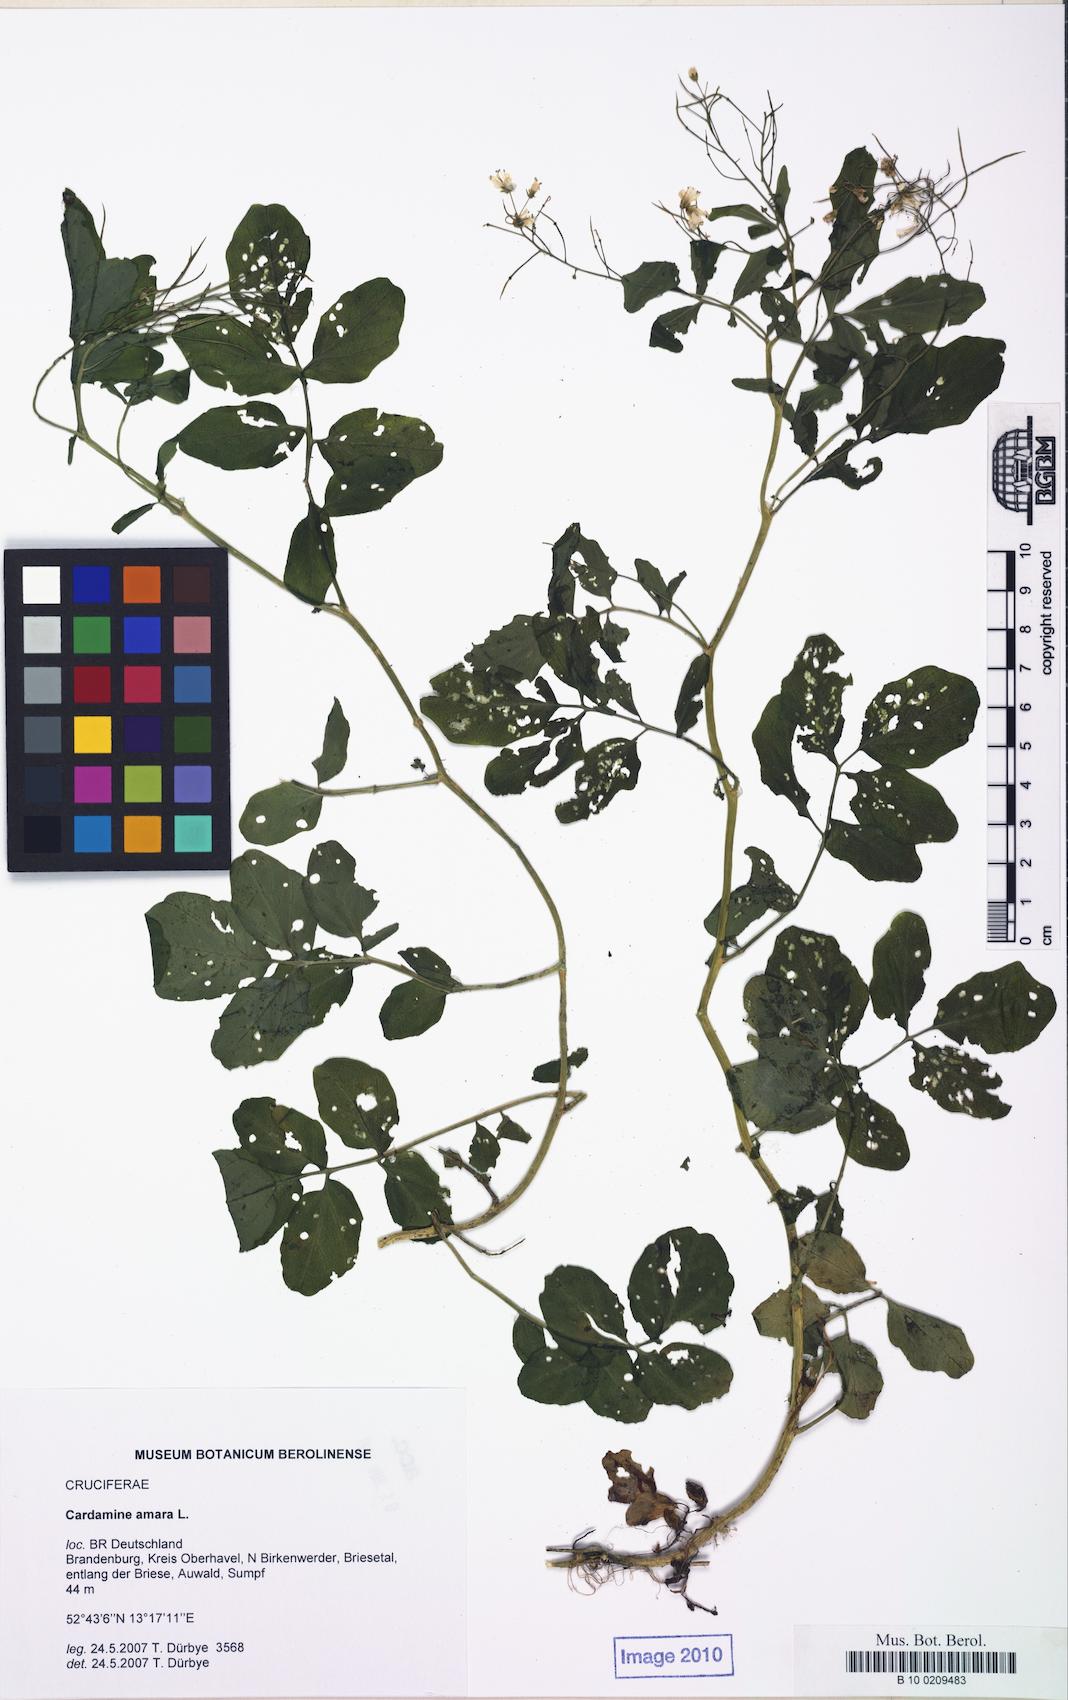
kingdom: Plantae
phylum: Tracheophyta
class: Magnoliopsida
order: Brassicales
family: Brassicaceae
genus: Cardamine
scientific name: Cardamine amara
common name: Large bitter-cress
